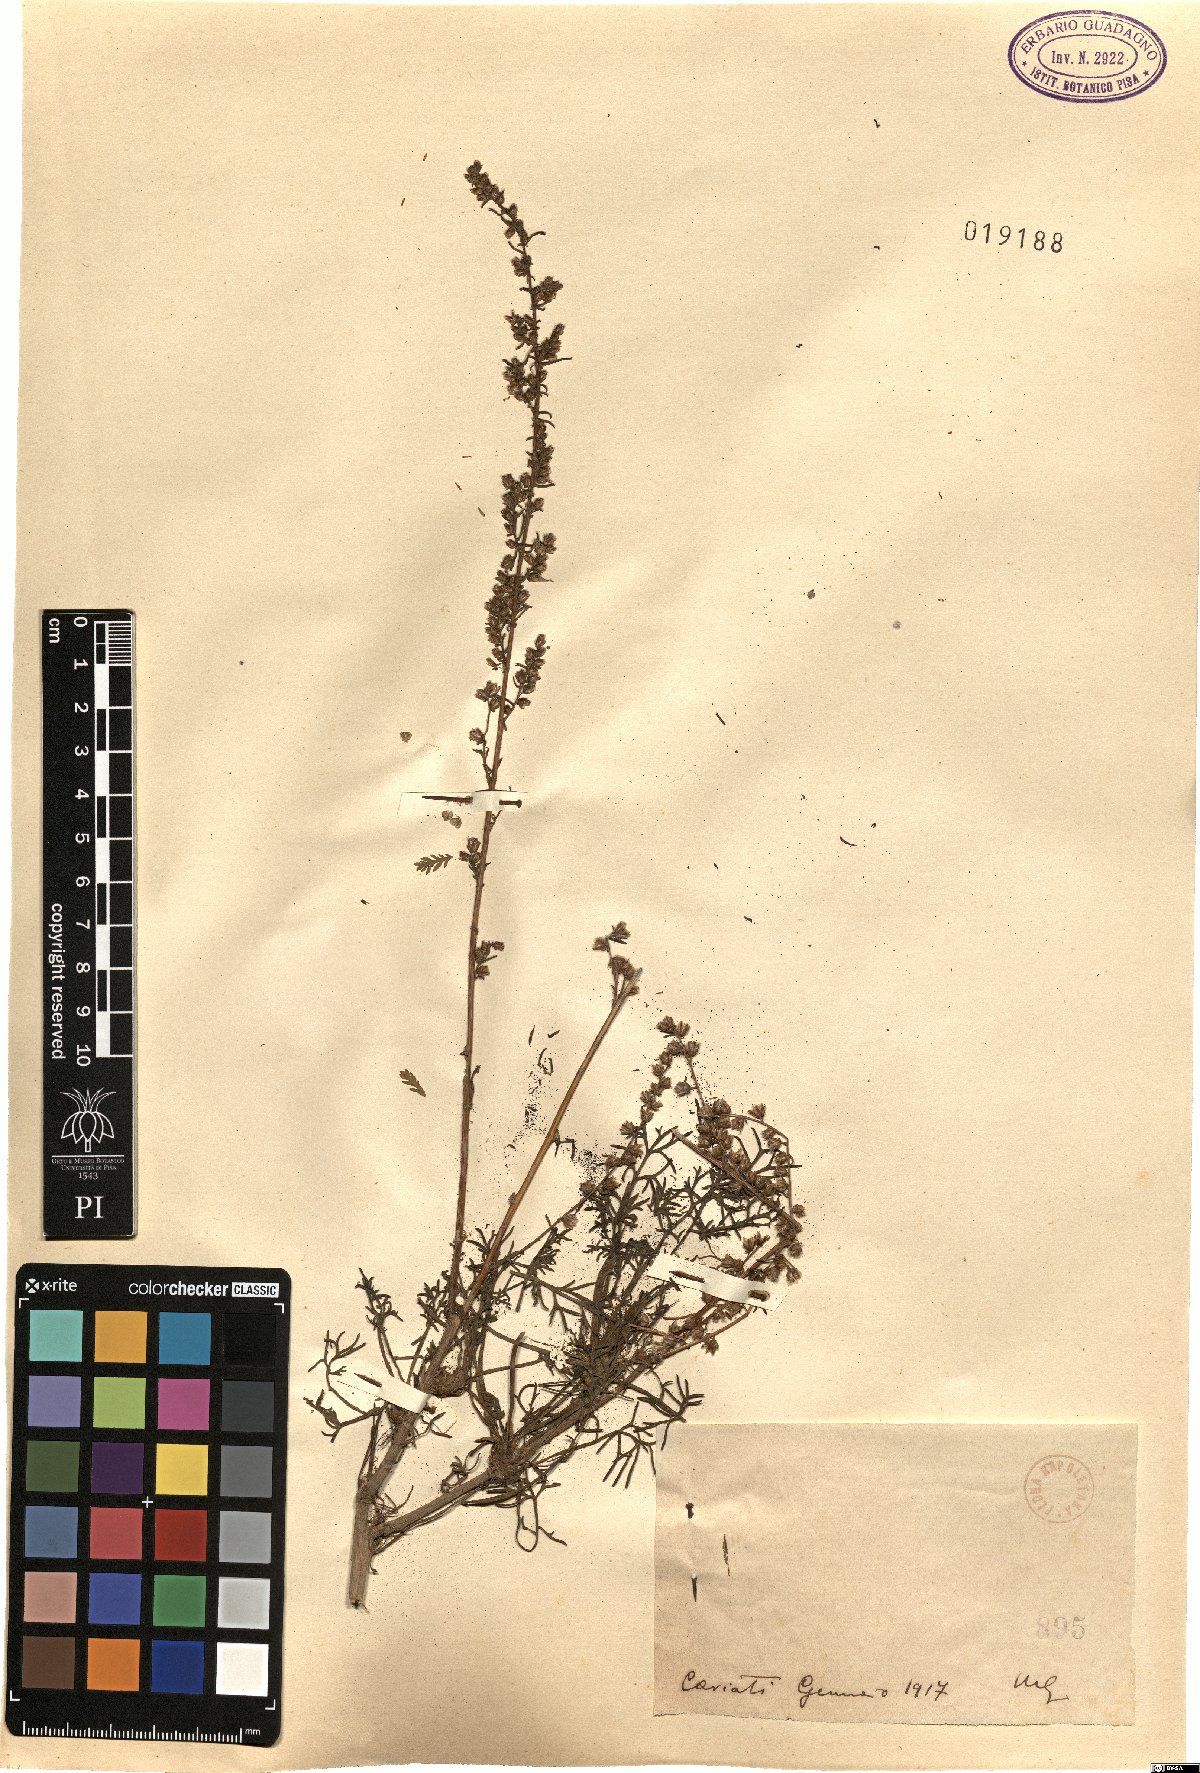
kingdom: Plantae
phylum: Tracheophyta
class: Magnoliopsida
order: Asterales
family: Asteraceae
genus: Artemisia
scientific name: Artemisia
